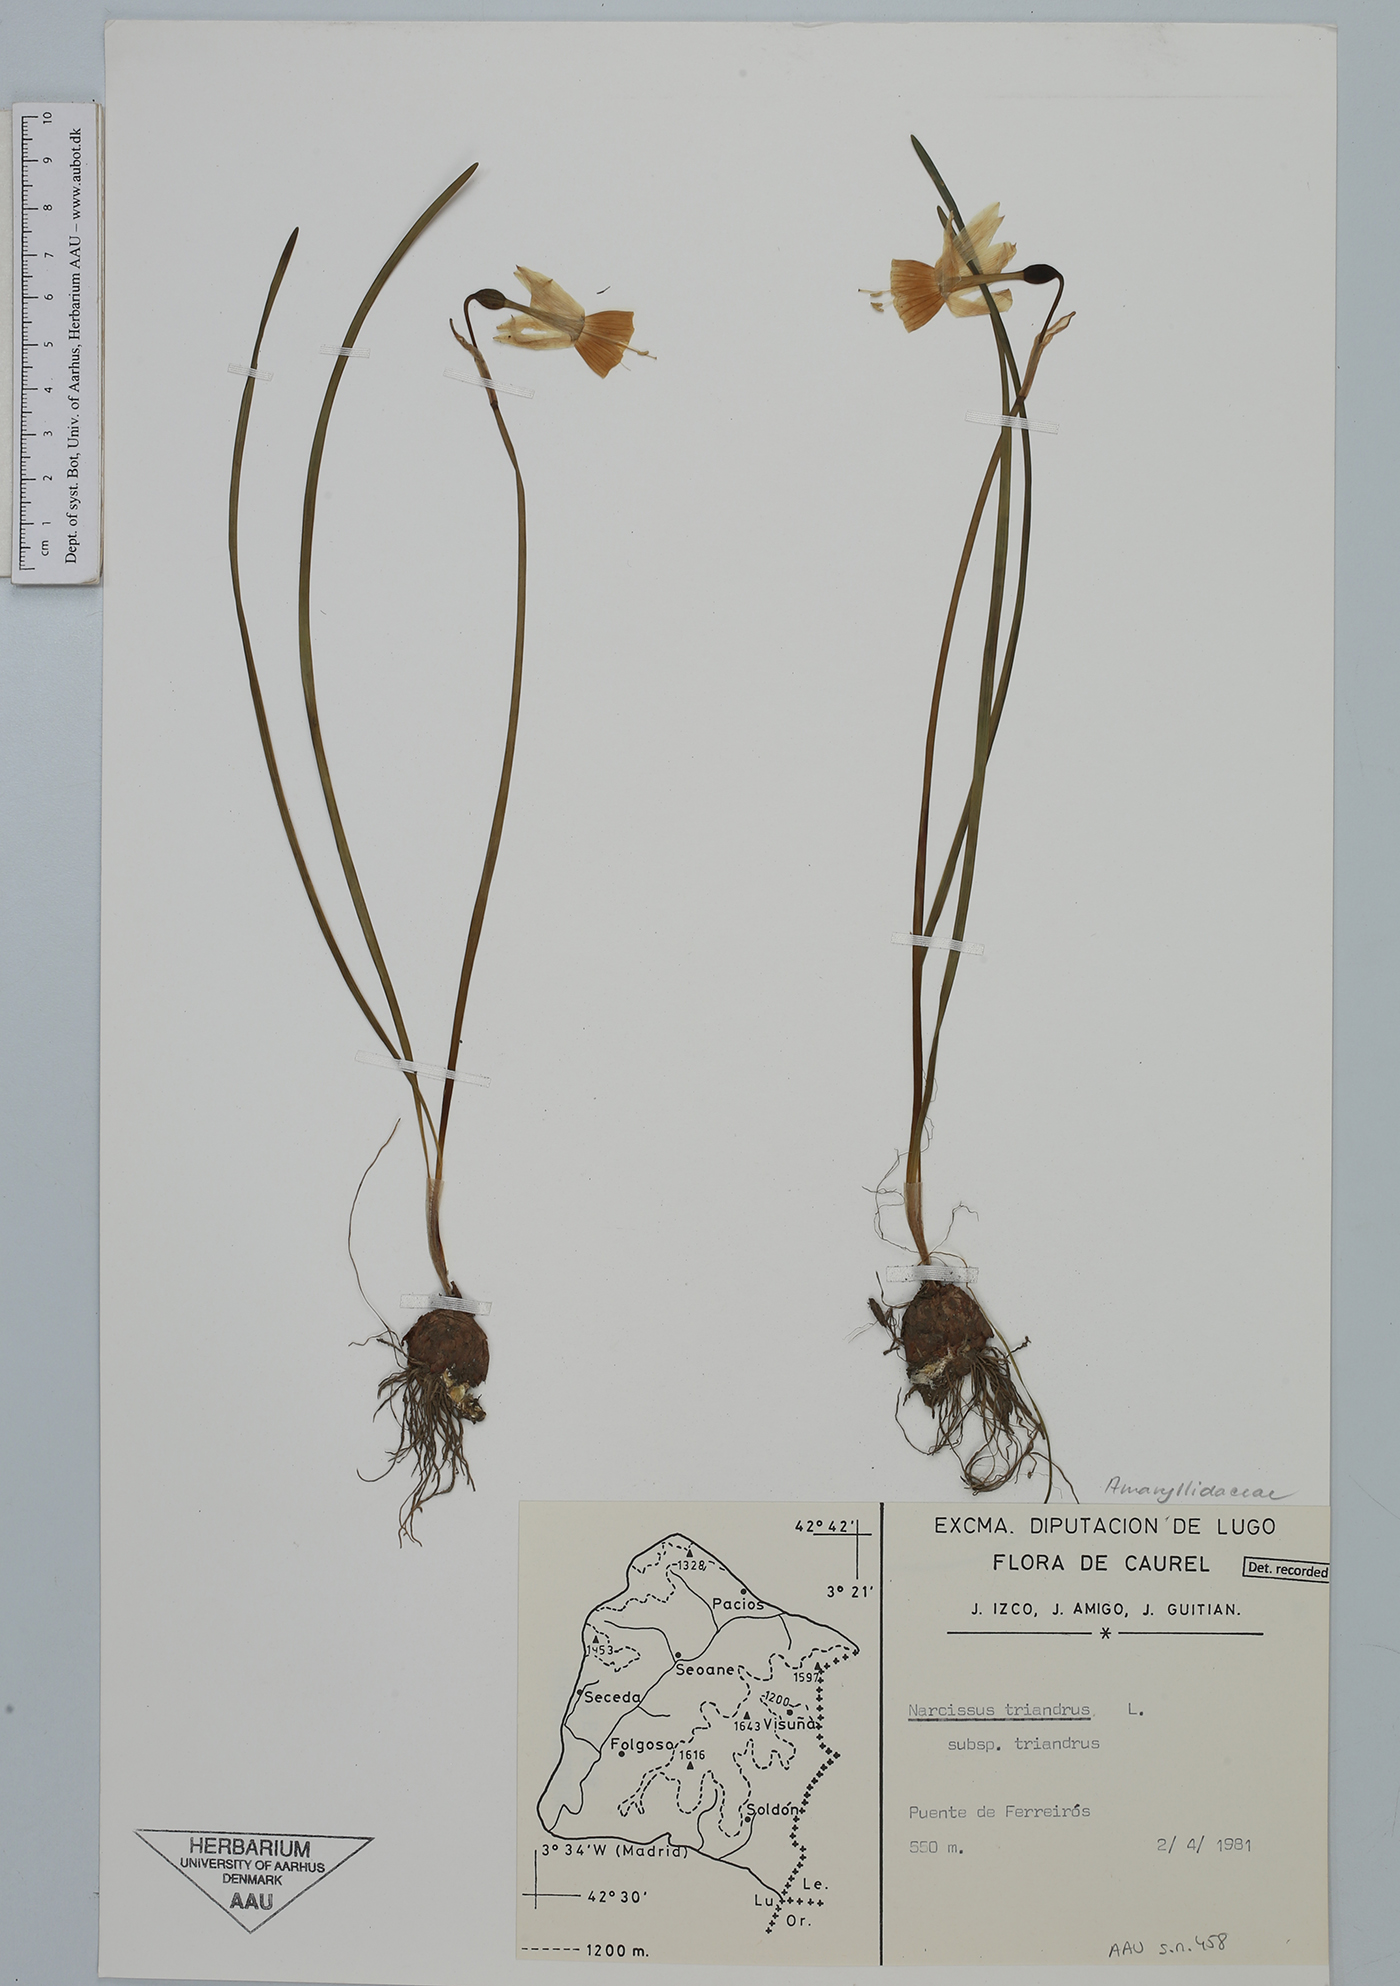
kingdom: Plantae
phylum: Tracheophyta
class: Liliopsida
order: Asparagales
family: Amaryllidaceae
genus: Narcissus
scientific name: Narcissus triandrus
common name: Angel's-tears
